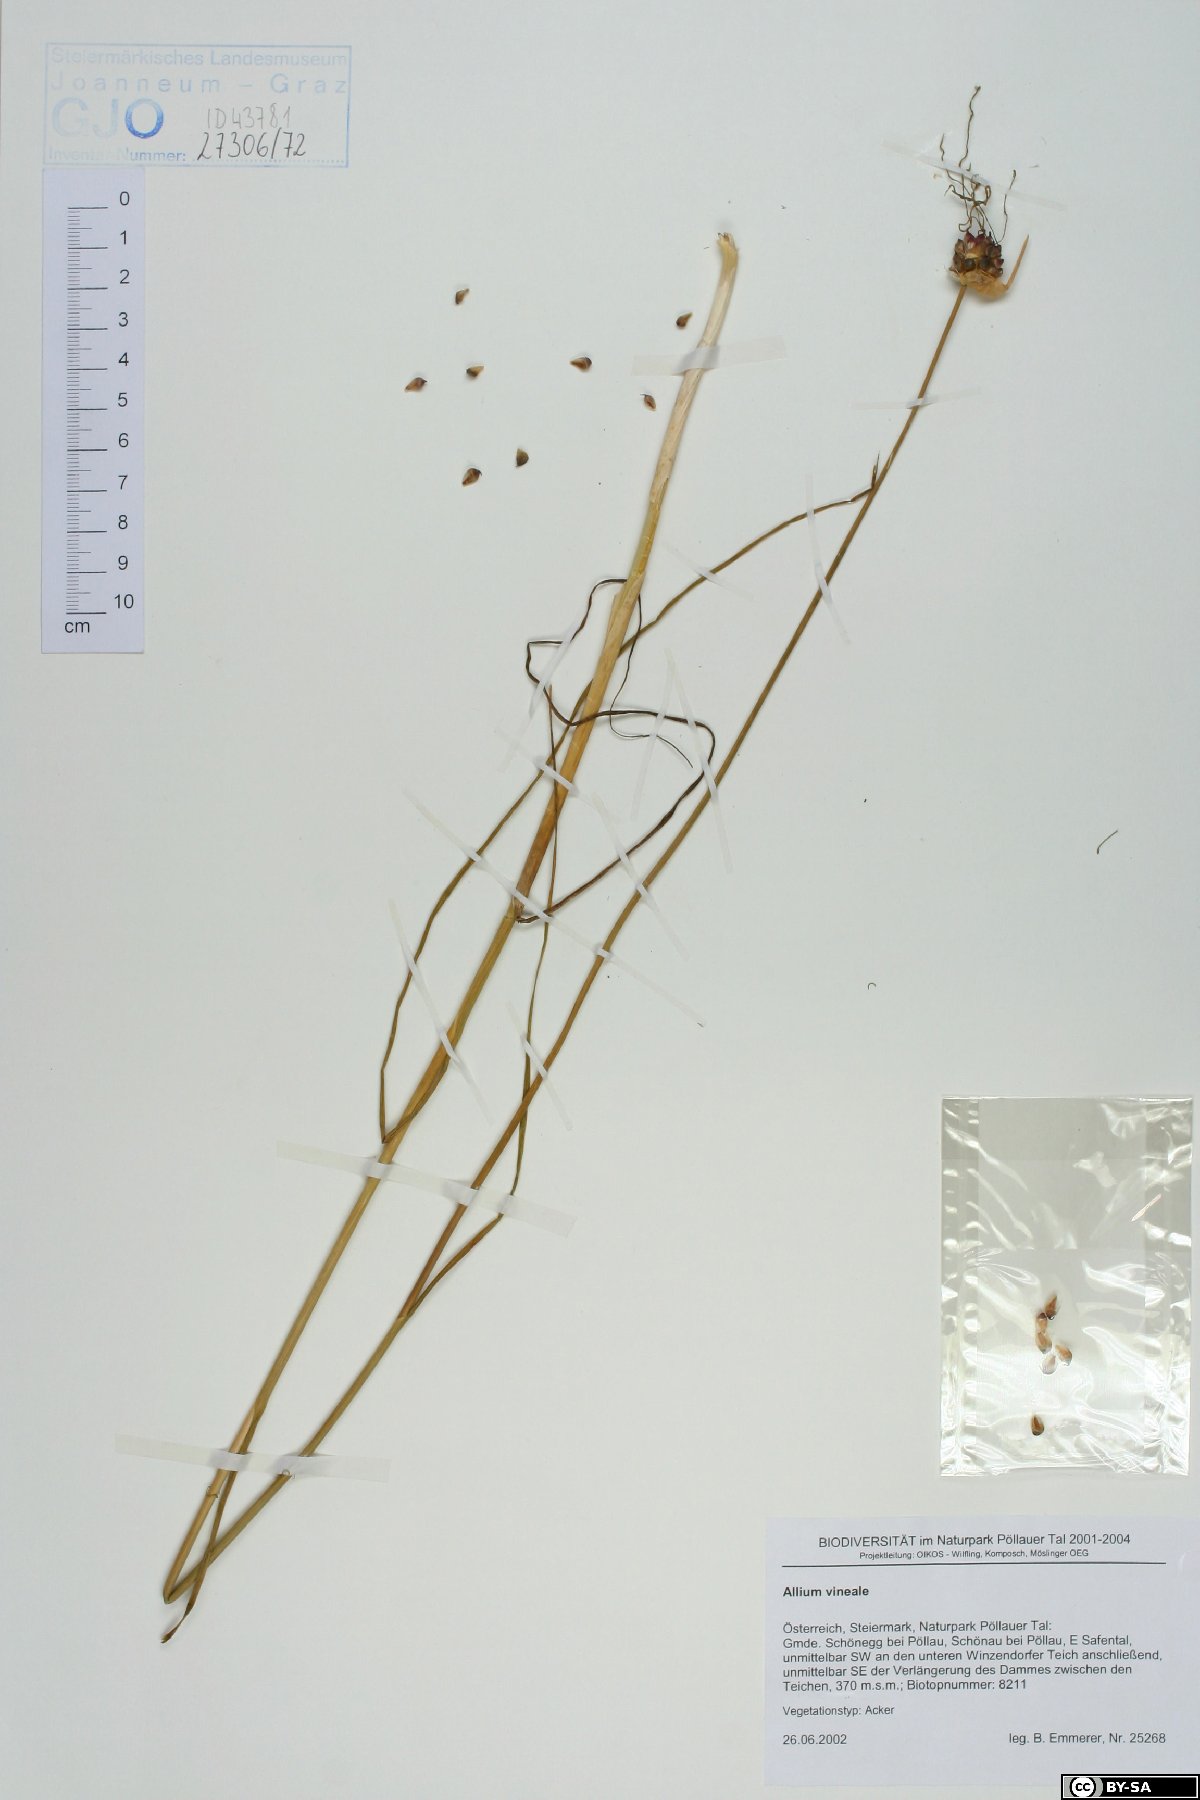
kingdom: Plantae
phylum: Tracheophyta
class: Liliopsida
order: Asparagales
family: Amaryllidaceae
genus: Allium
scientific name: Allium vineale
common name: Crow garlic
